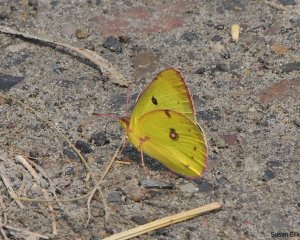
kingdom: Animalia
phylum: Arthropoda
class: Insecta
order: Lepidoptera
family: Pieridae
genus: Colias
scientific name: Colias
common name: Clouded Yellows
